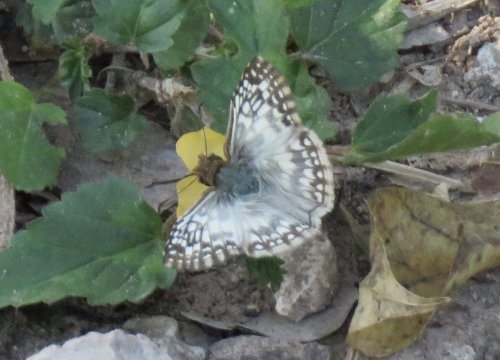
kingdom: Animalia
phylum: Arthropoda
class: Insecta
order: Lepidoptera
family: Hesperiidae
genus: Pyrgus
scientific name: Pyrgus oileus
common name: Tropical Checkered-Skipper
